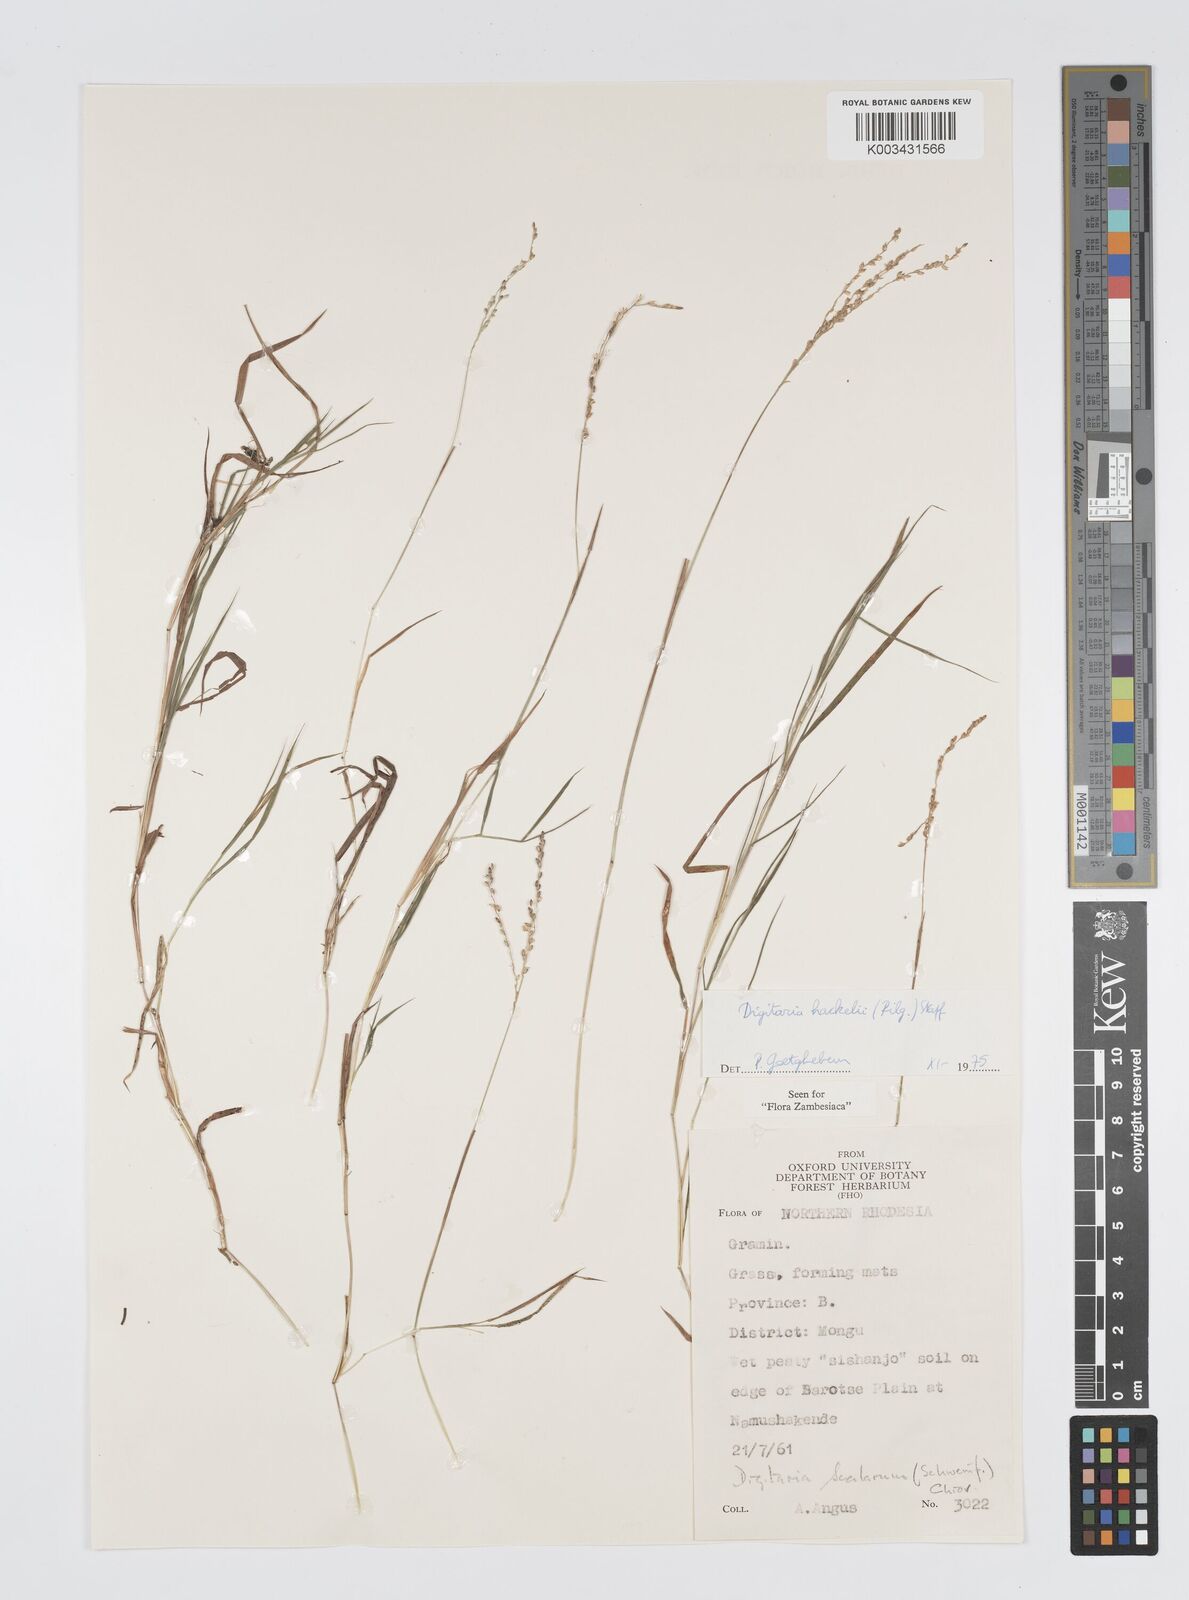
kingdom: Plantae
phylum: Tracheophyta
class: Liliopsida
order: Poales
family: Poaceae
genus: Digitaria
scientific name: Digitaria abyssinica
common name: African couchgrass
